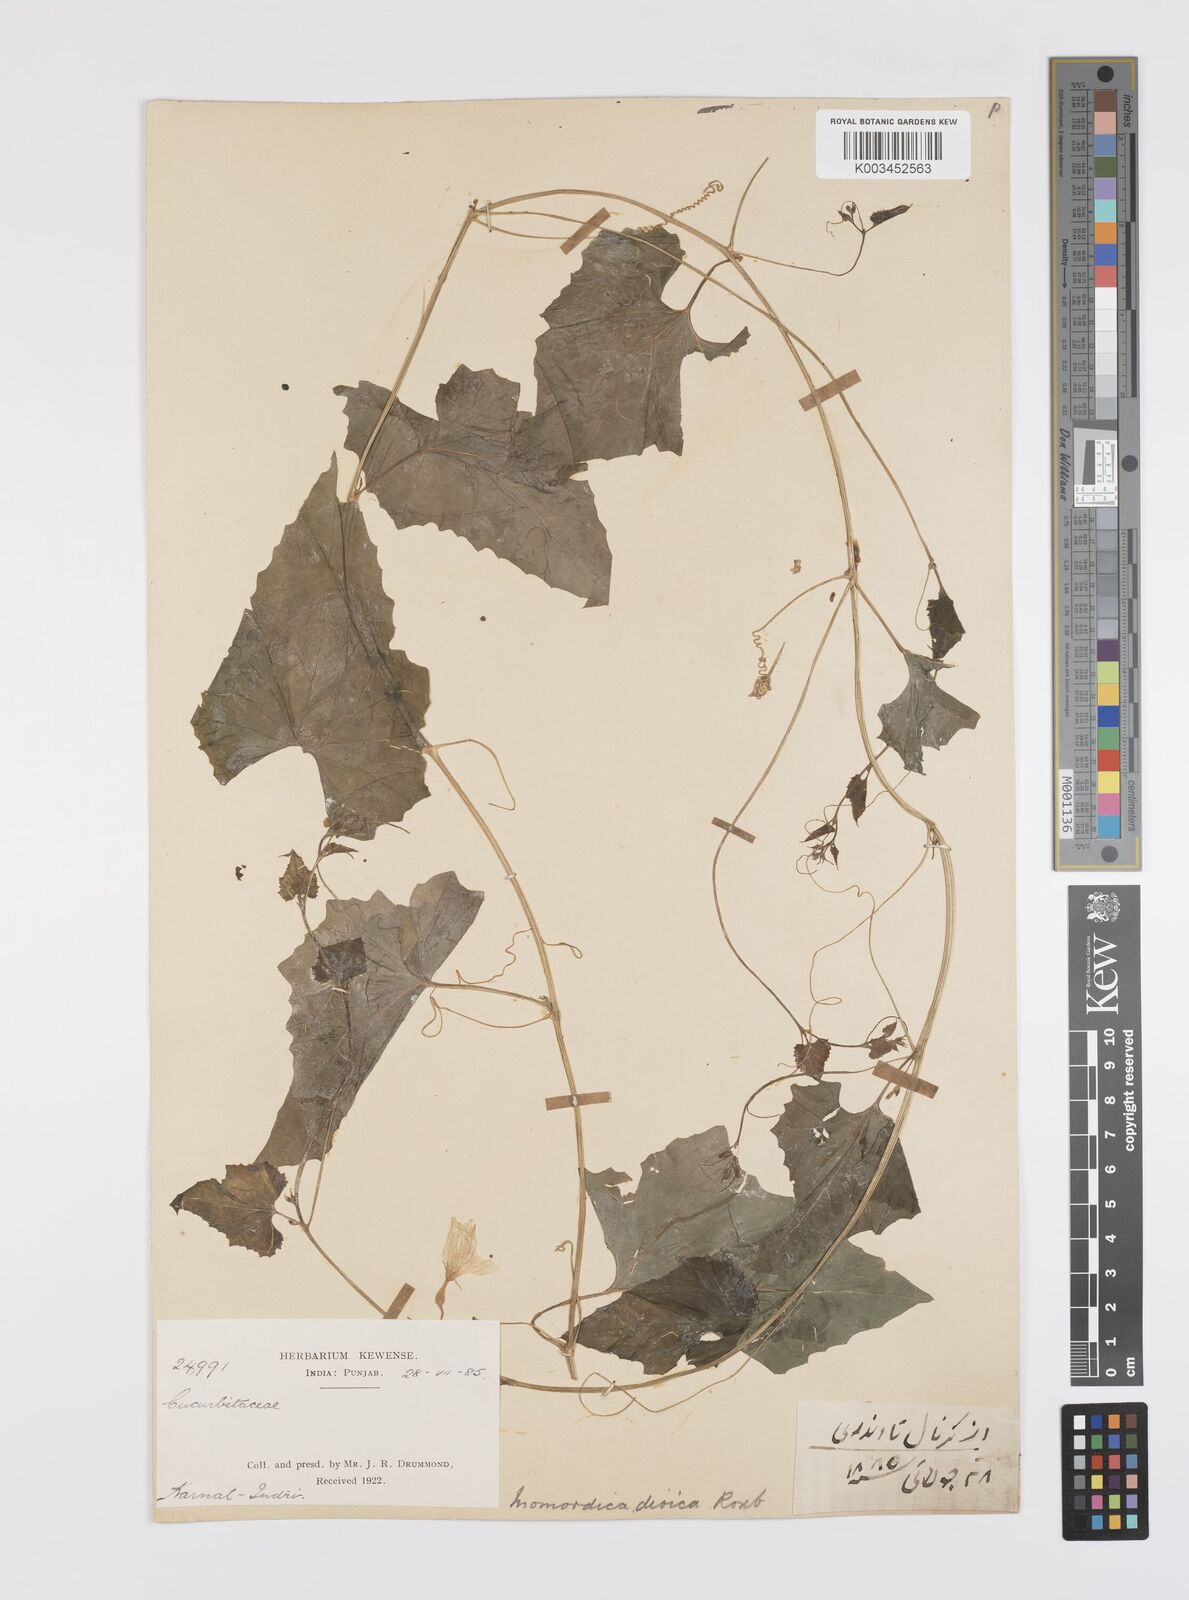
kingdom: Plantae
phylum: Tracheophyta
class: Magnoliopsida
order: Cucurbitales
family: Cucurbitaceae
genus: Momordica
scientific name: Momordica dioica
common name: Spine gourd
